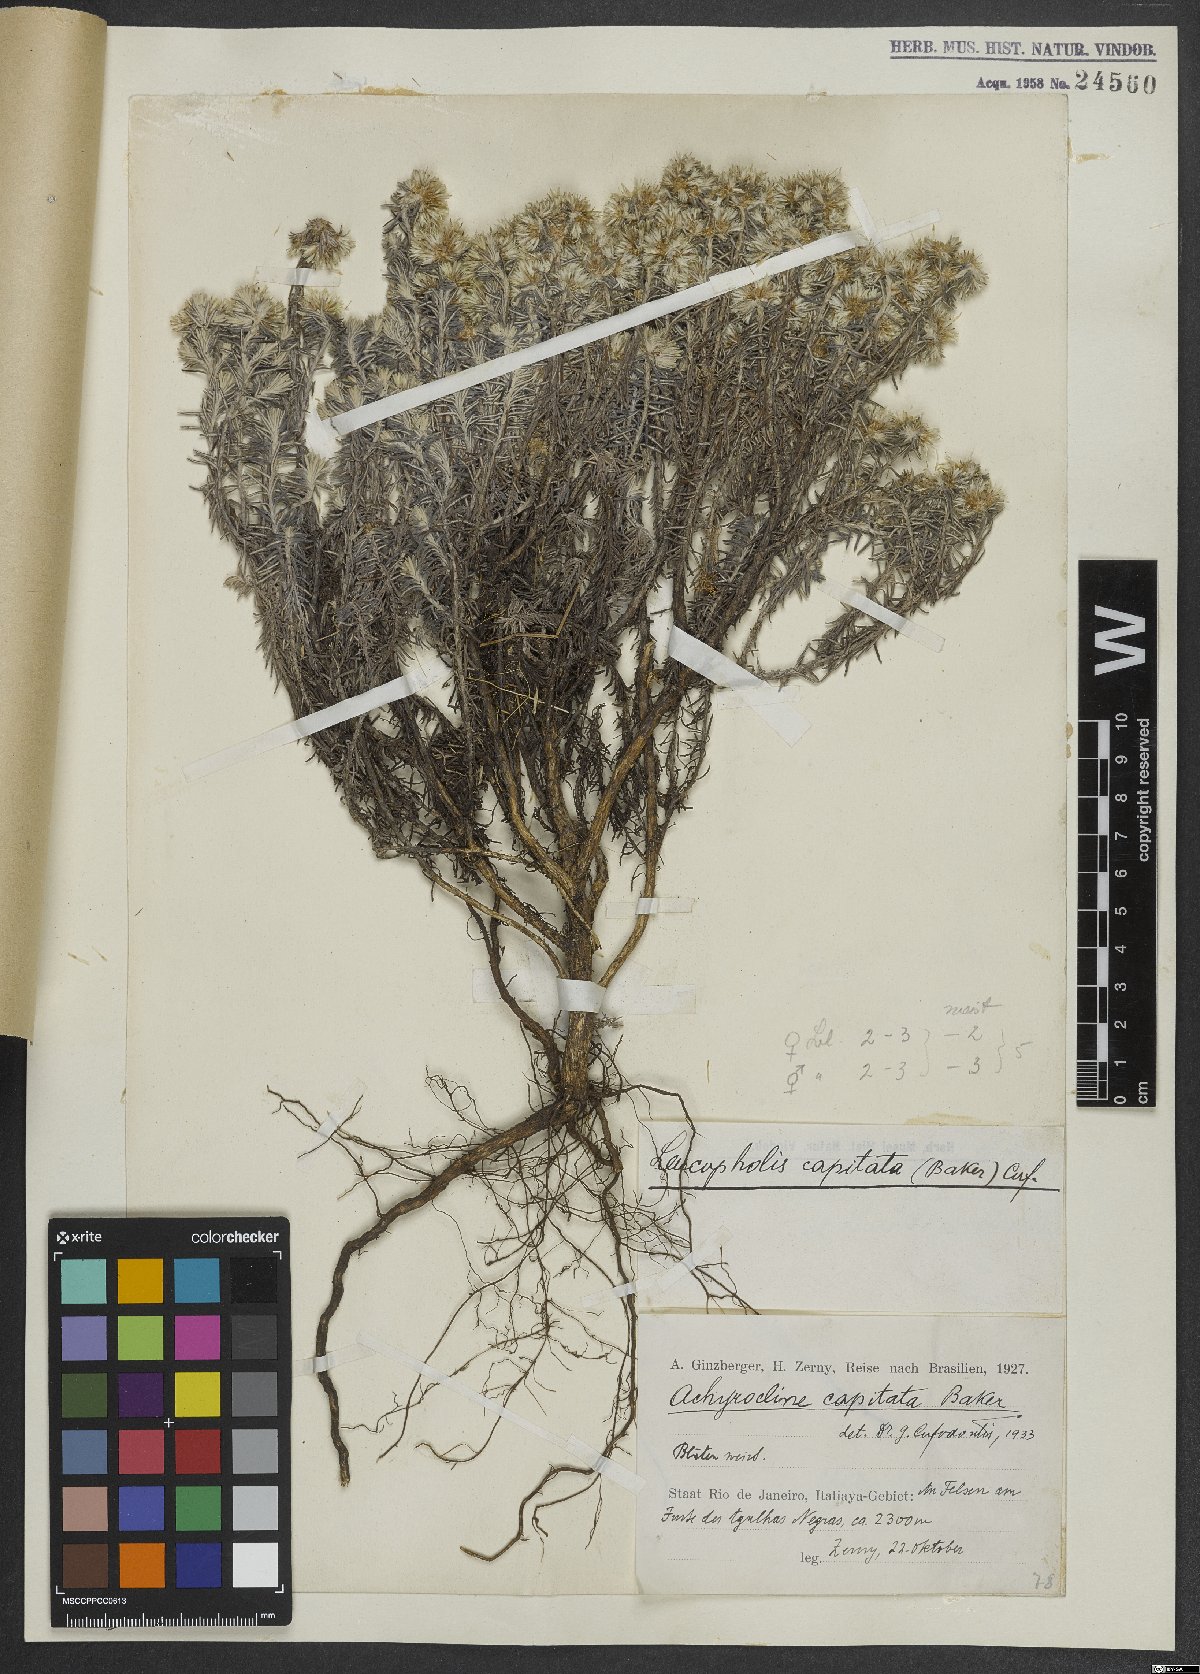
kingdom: Plantae
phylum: Tracheophyta
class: Magnoliopsida
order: Asterales
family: Asteraceae
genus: Chionolaena
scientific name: Chionolaena capitata
